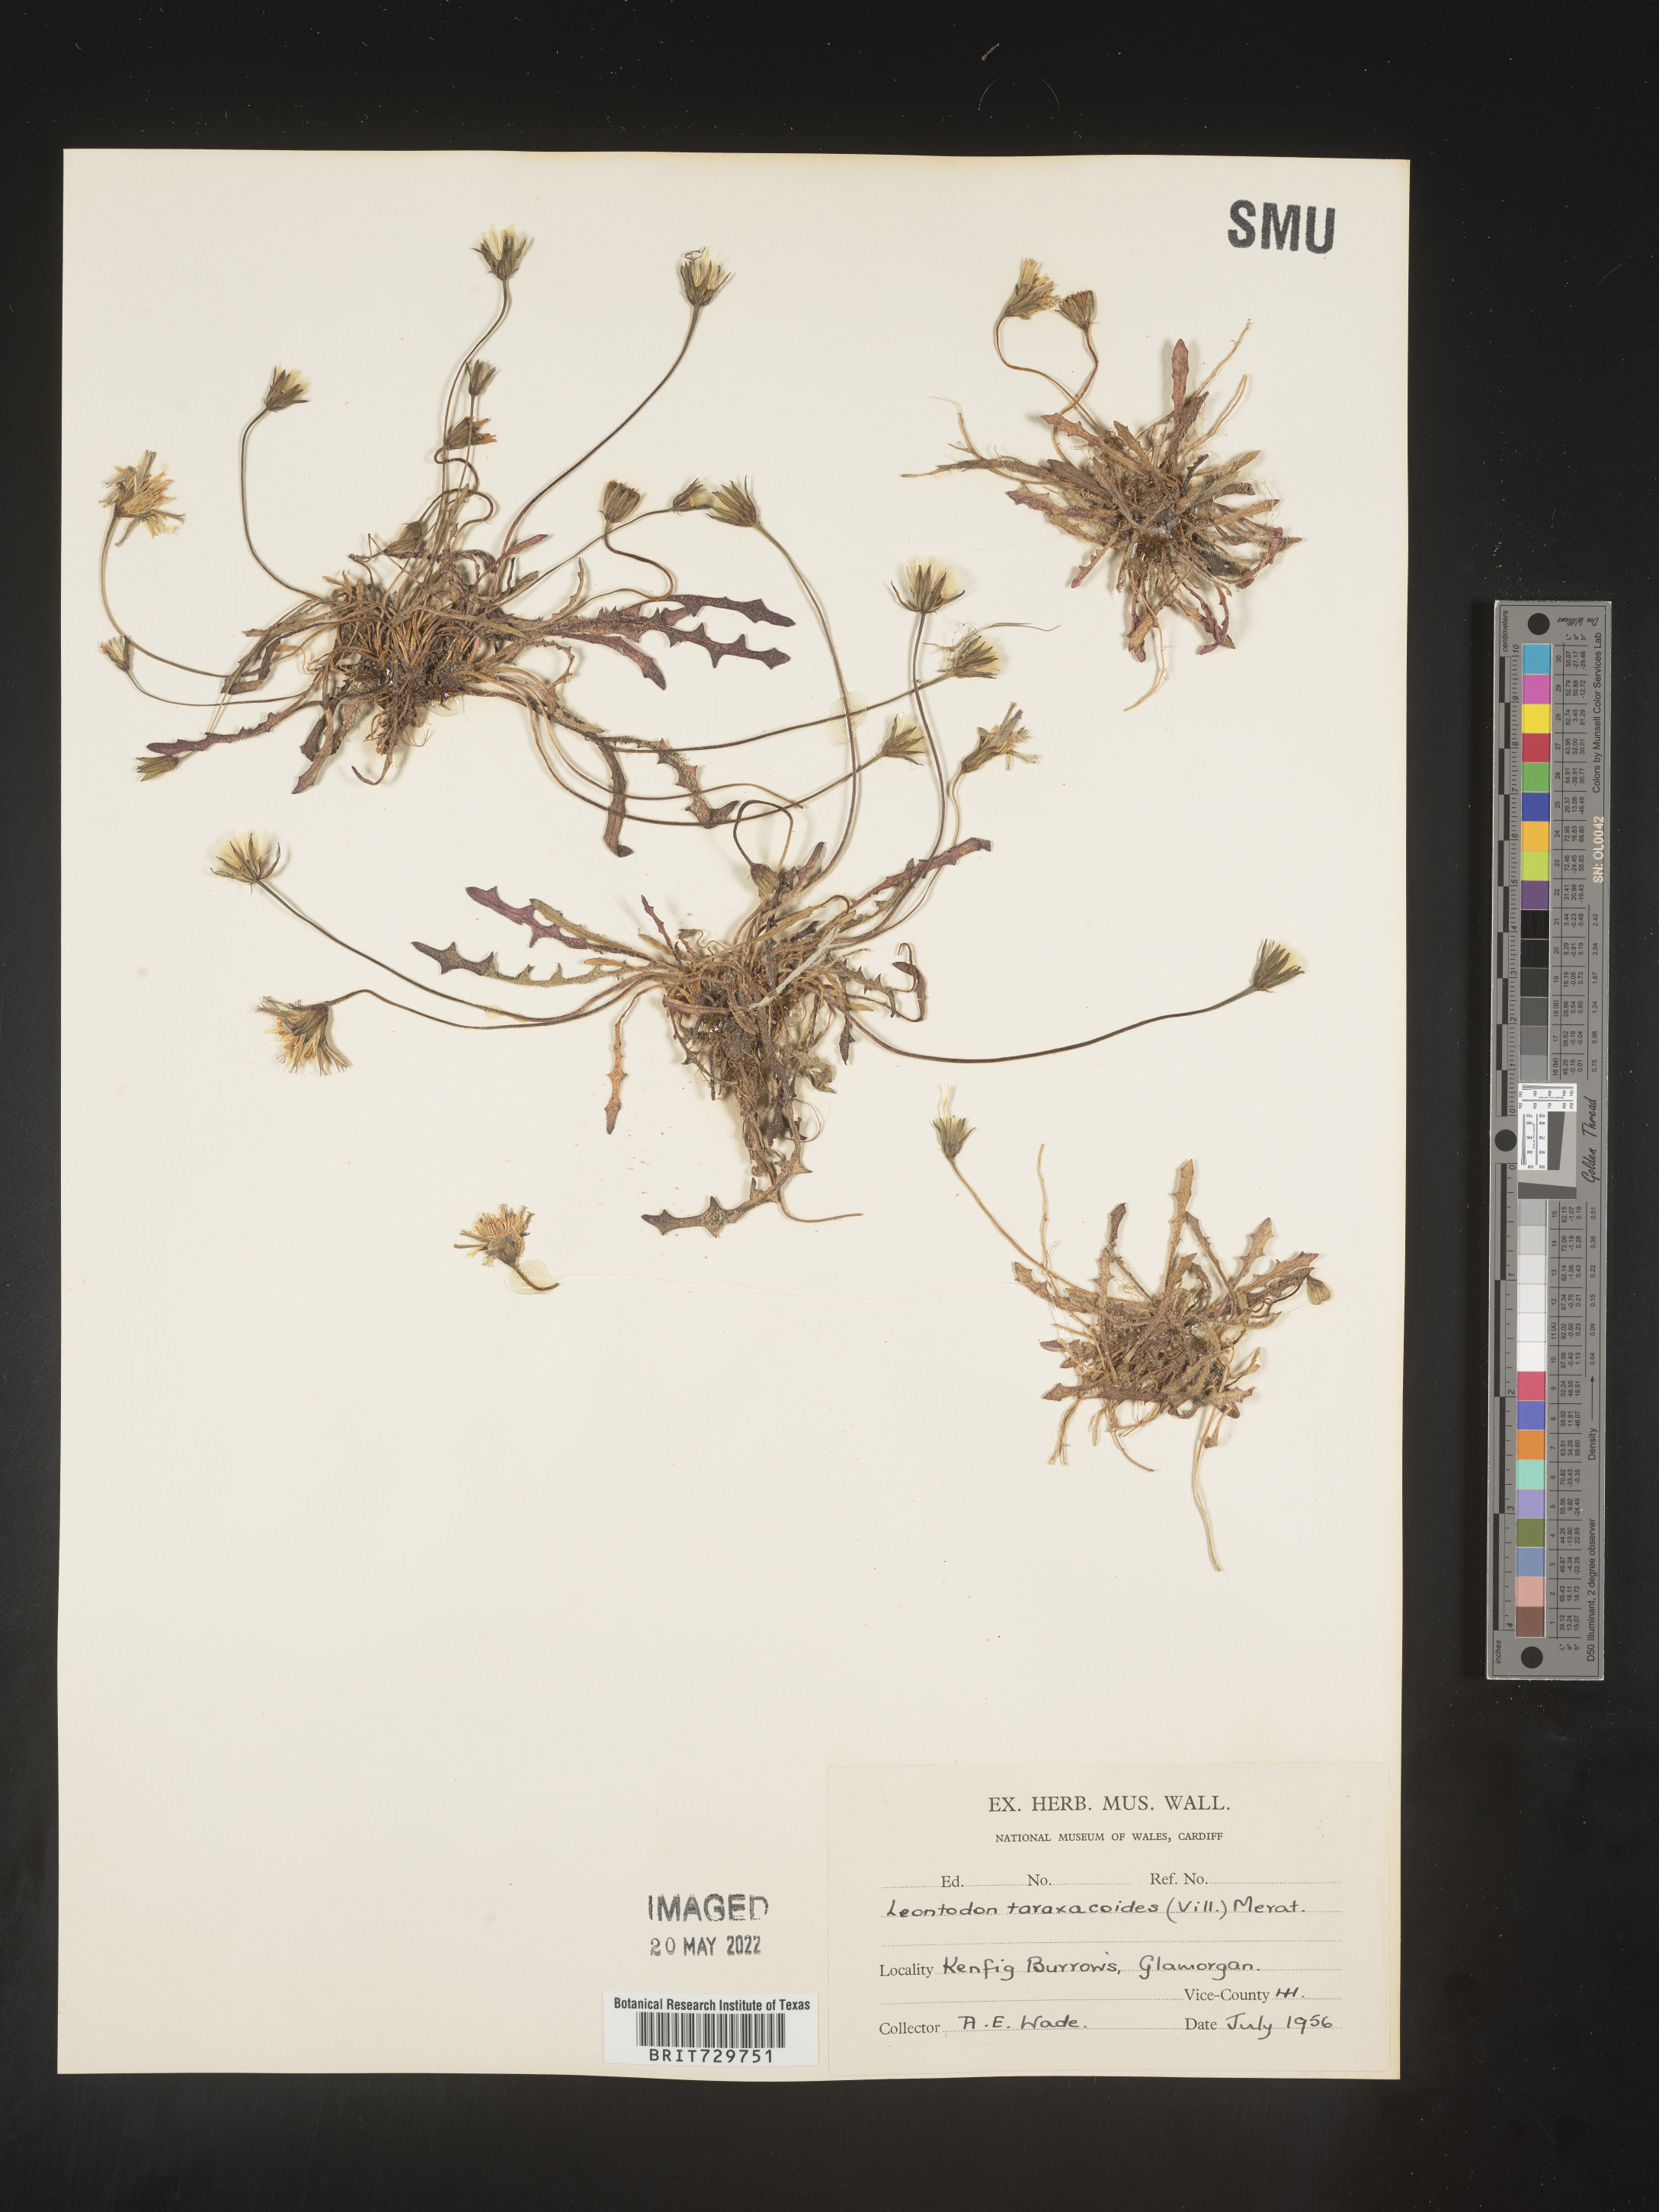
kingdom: Plantae
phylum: Tracheophyta
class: Magnoliopsida
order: Asterales
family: Asteraceae
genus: Leontodon
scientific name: Leontodon
